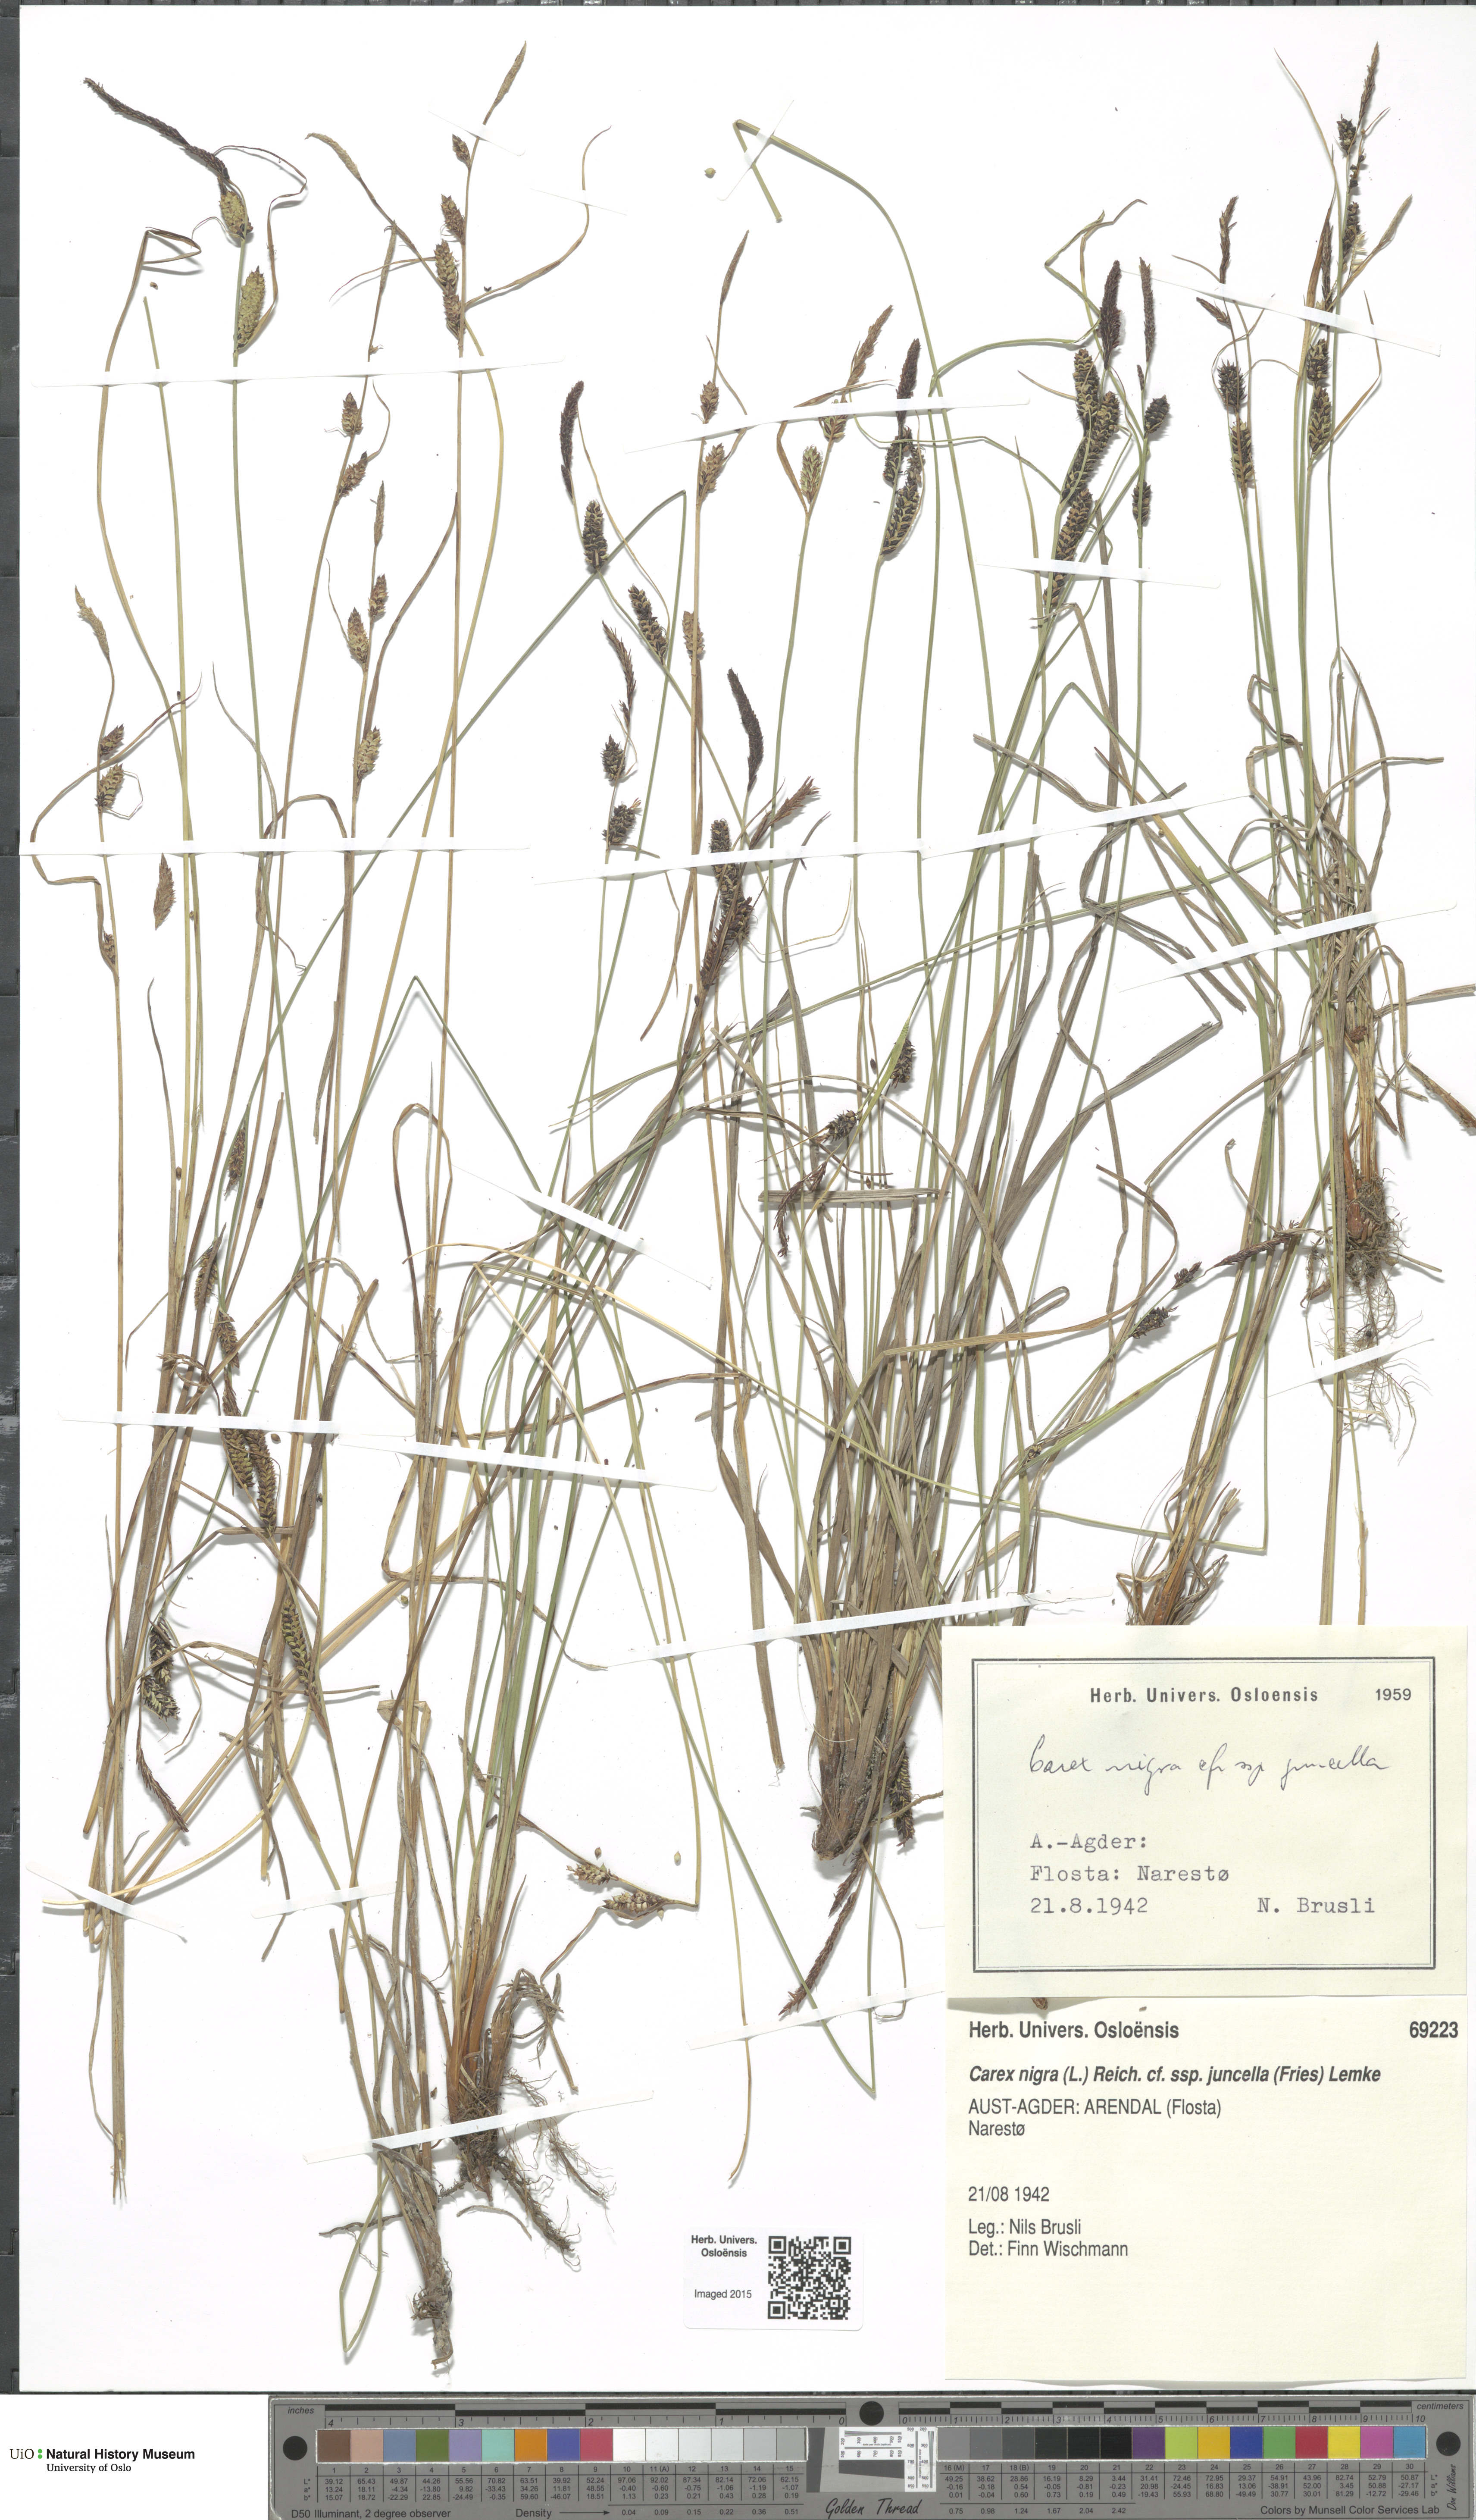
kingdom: Plantae
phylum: Tracheophyta
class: Liliopsida
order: Poales
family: Cyperaceae
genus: Carex
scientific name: Carex nigra
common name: Common sedge
